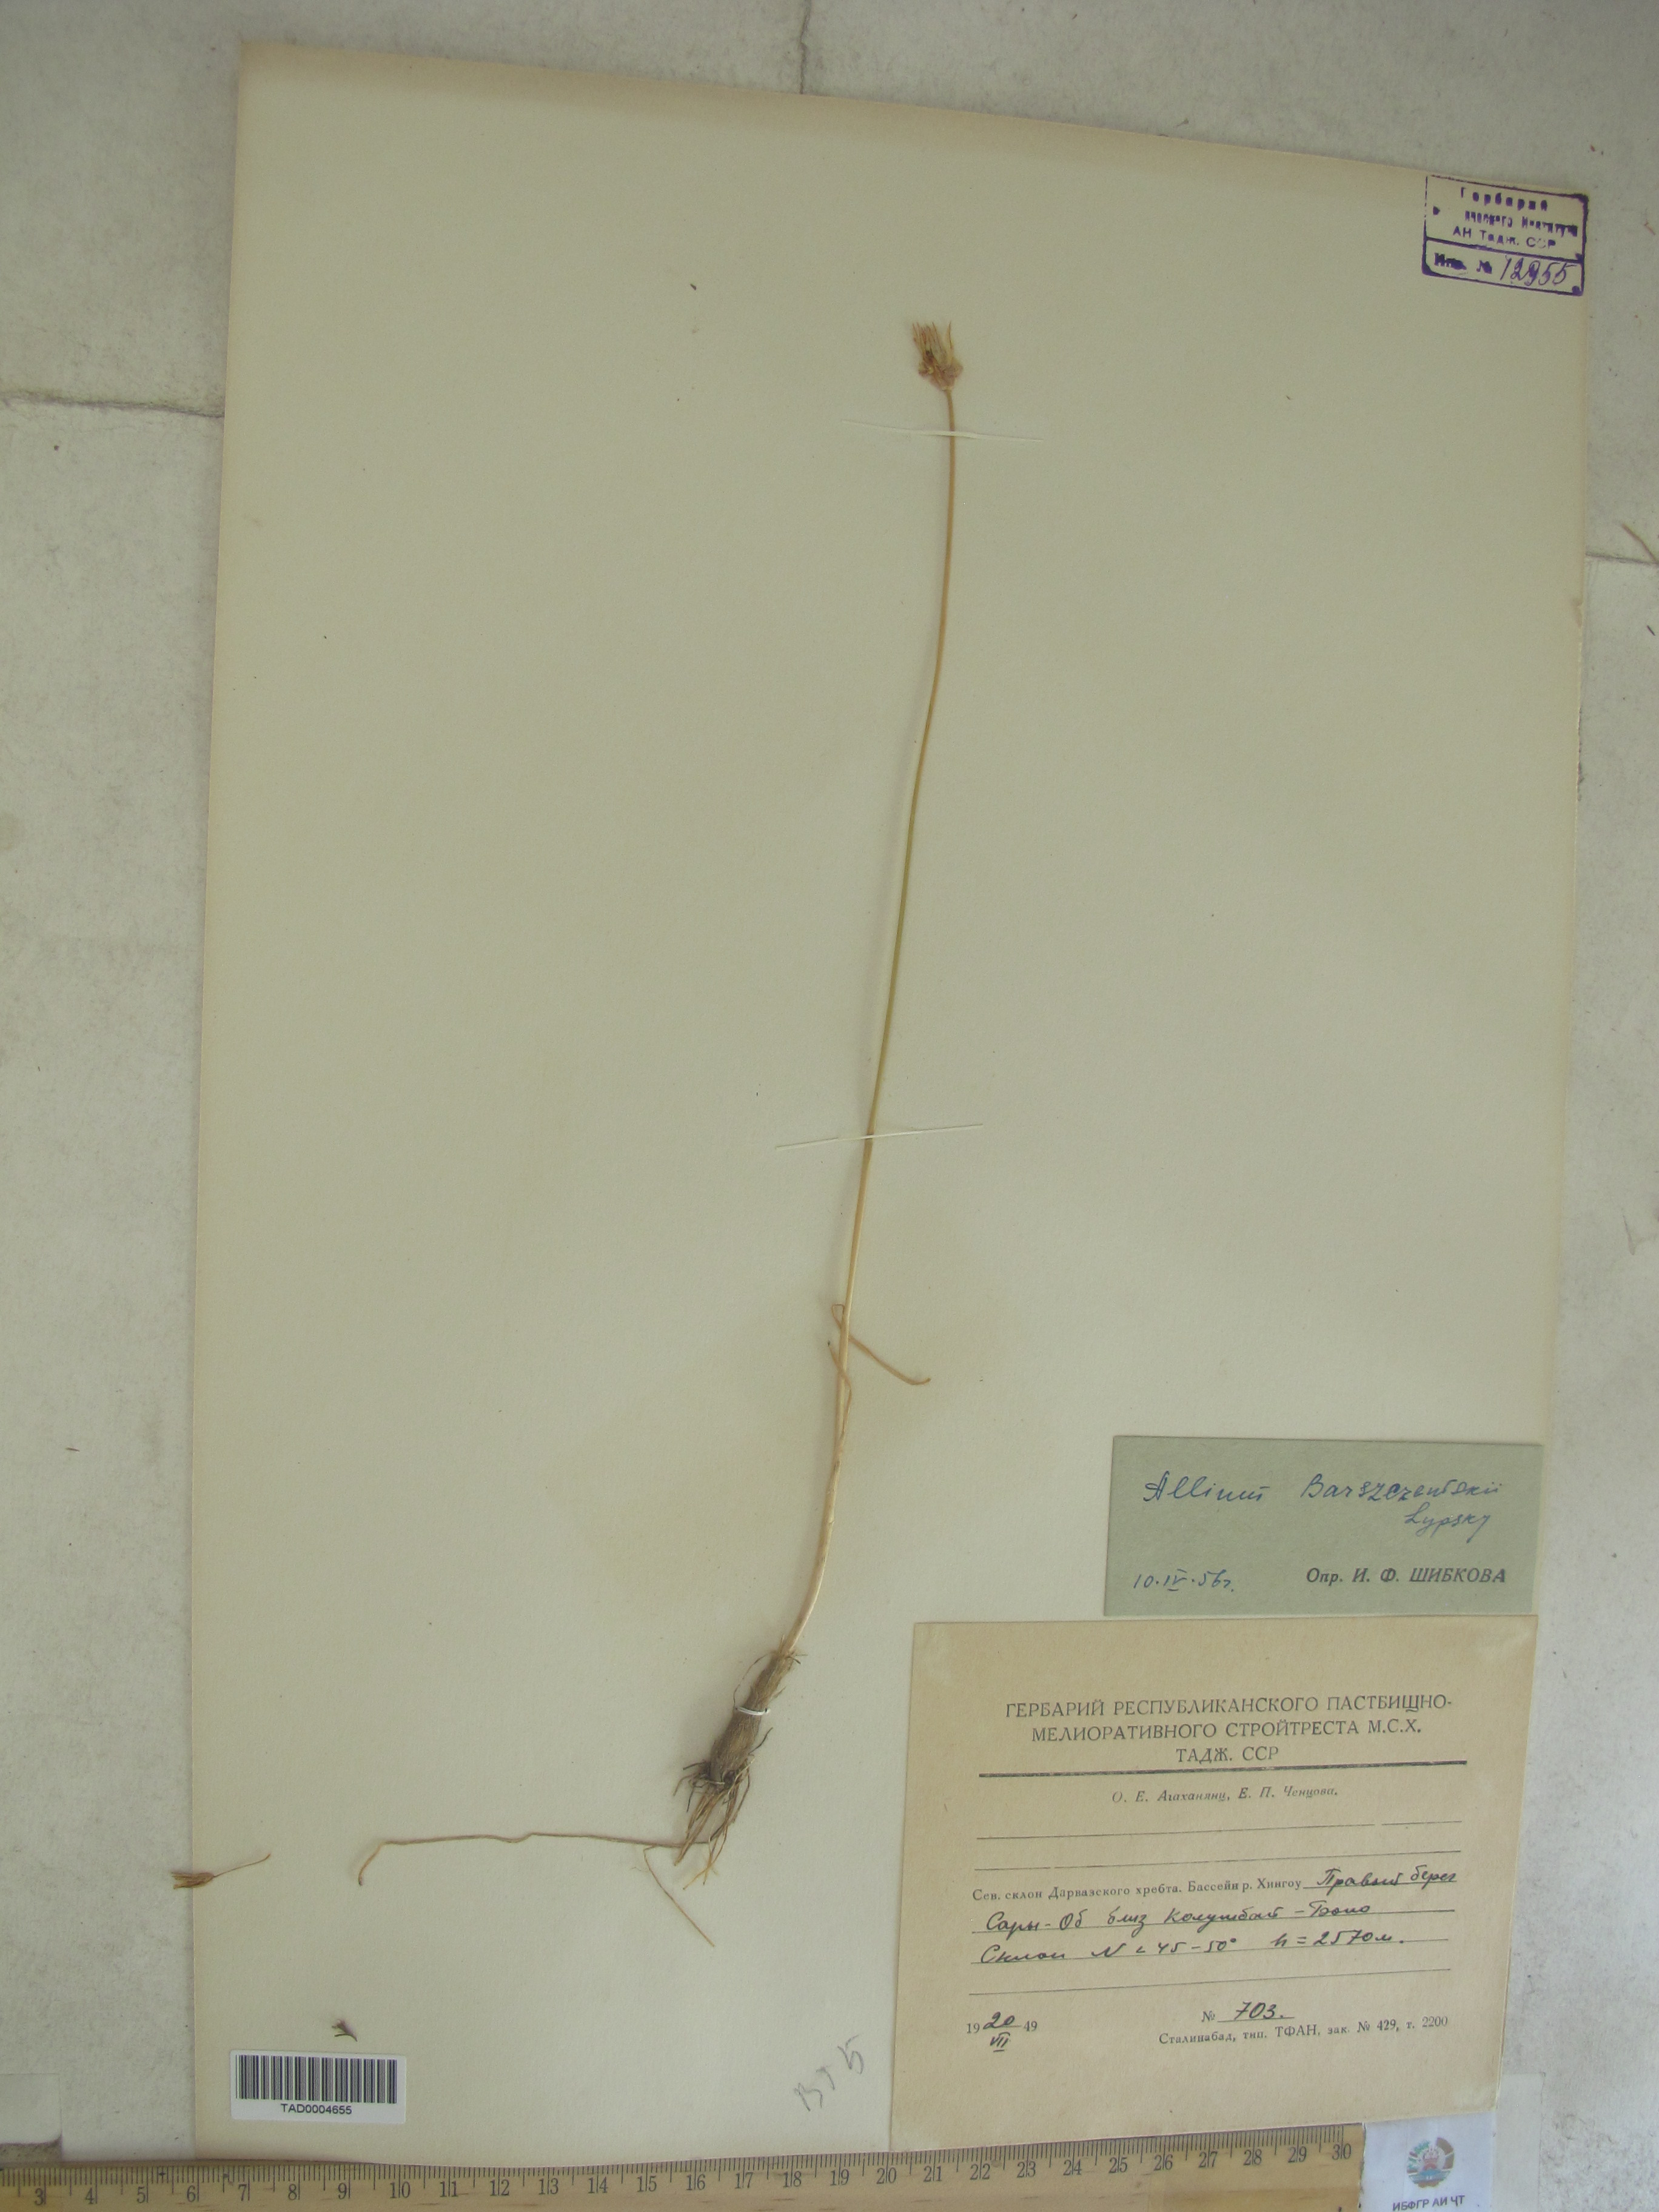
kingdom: Plantae
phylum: Tracheophyta
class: Liliopsida
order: Asparagales
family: Amaryllidaceae
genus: Allium
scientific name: Allium barsczewskii
